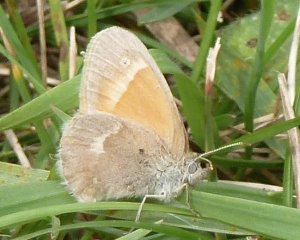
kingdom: Animalia
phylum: Arthropoda
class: Insecta
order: Lepidoptera
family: Nymphalidae
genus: Coenonympha
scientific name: Coenonympha tullia
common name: Large Heath
